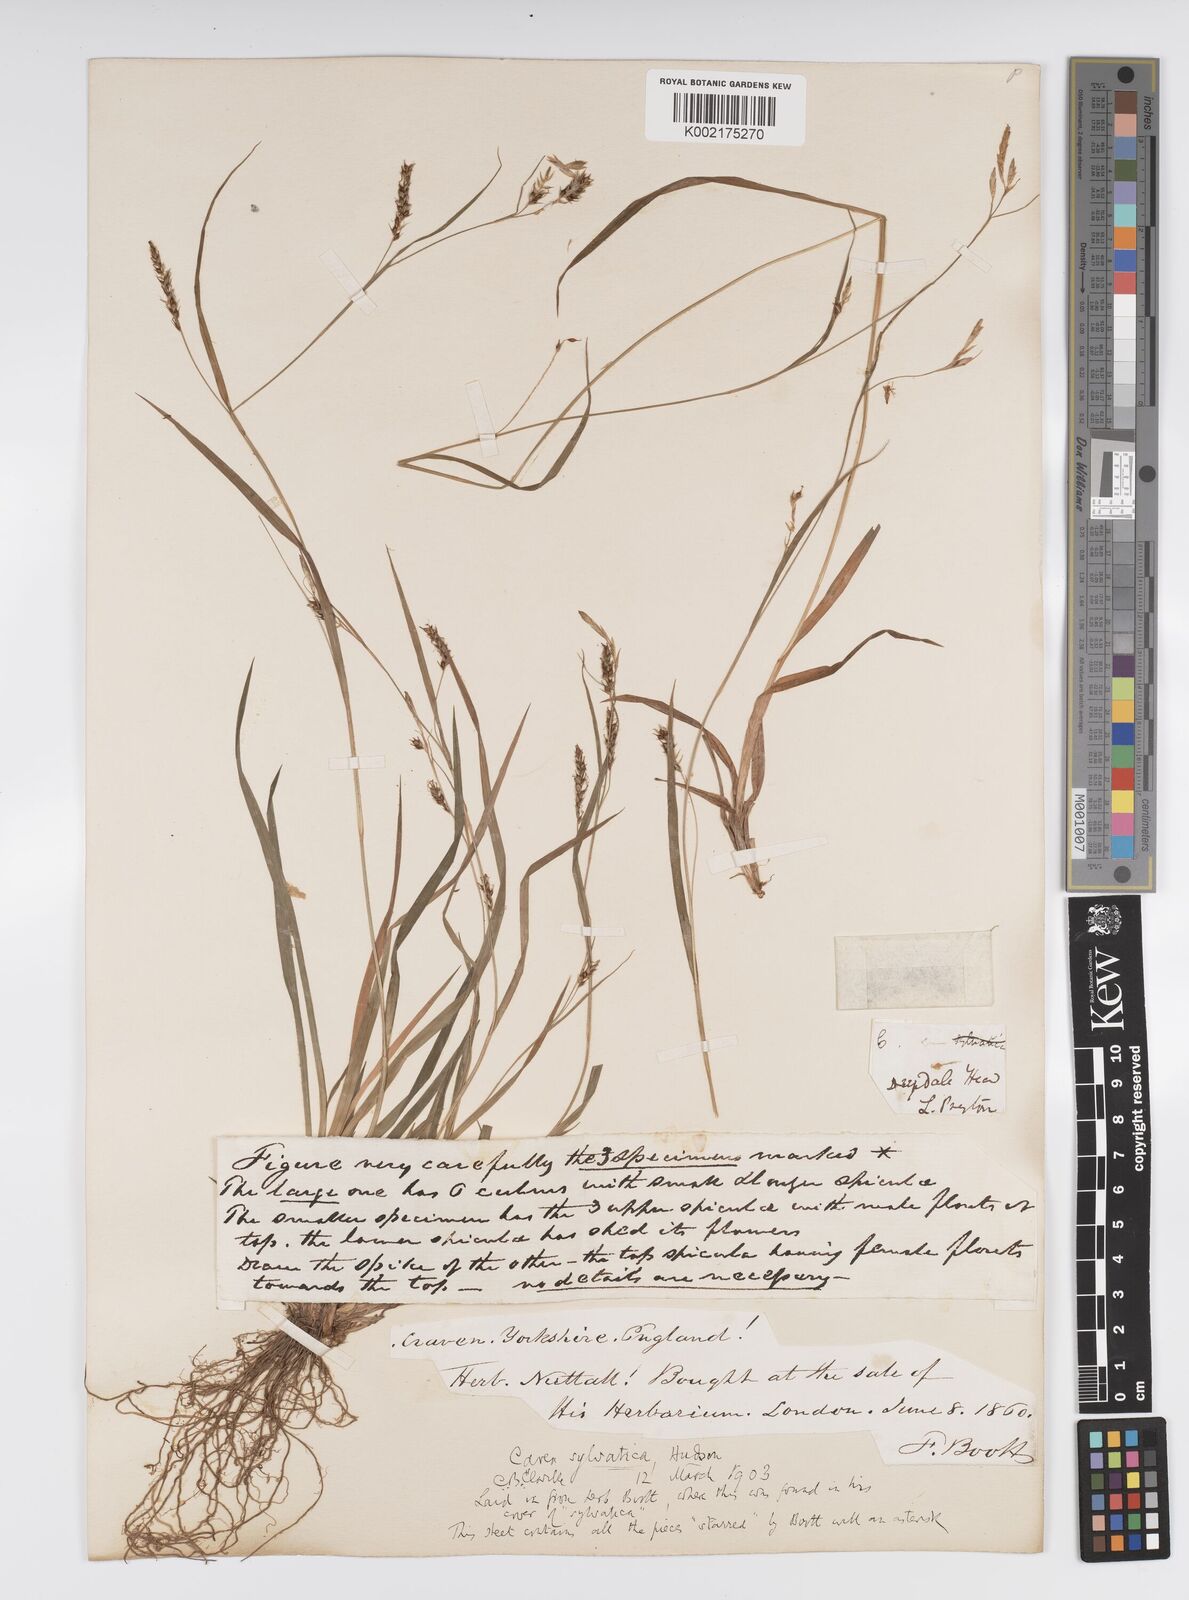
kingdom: Plantae
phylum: Tracheophyta
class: Liliopsida
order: Poales
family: Cyperaceae
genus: Carex
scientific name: Carex sylvatica
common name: Wood-sedge
